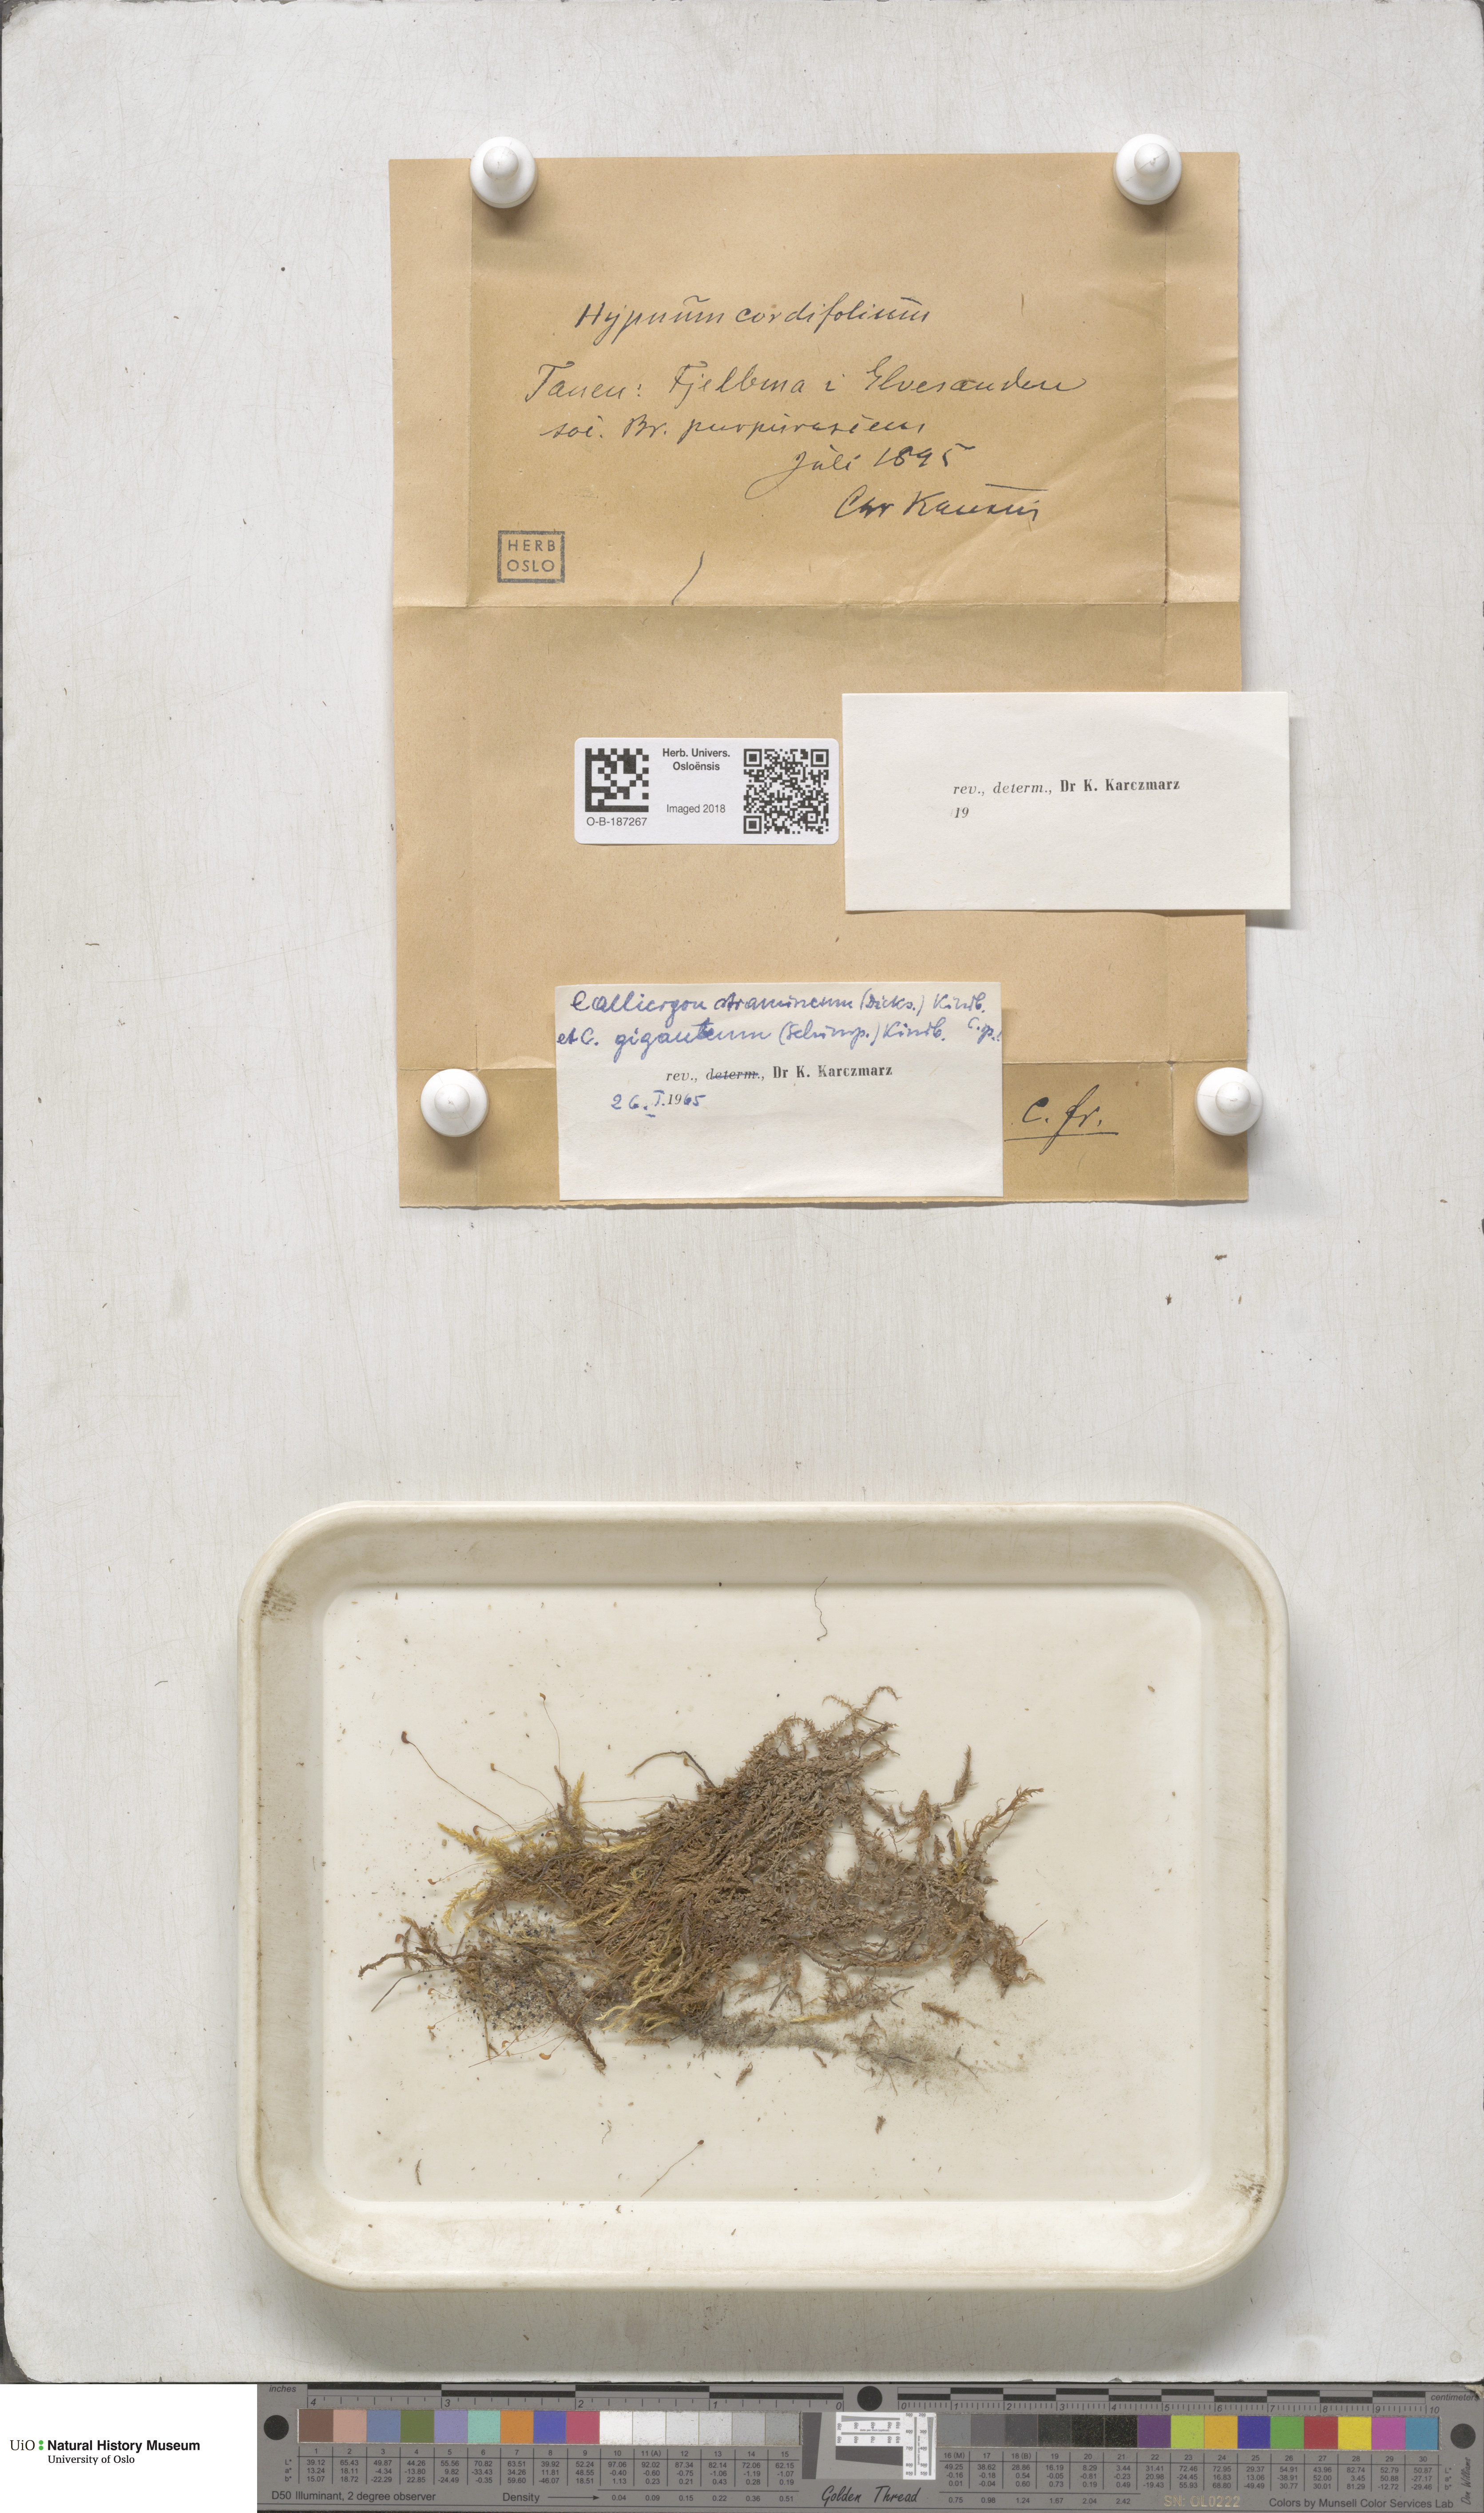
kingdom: Plantae
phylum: Bryophyta
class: Bryopsida
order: Hypnales
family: Calliergonaceae
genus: Straminergon
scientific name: Straminergon stramineum
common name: Straw moss
